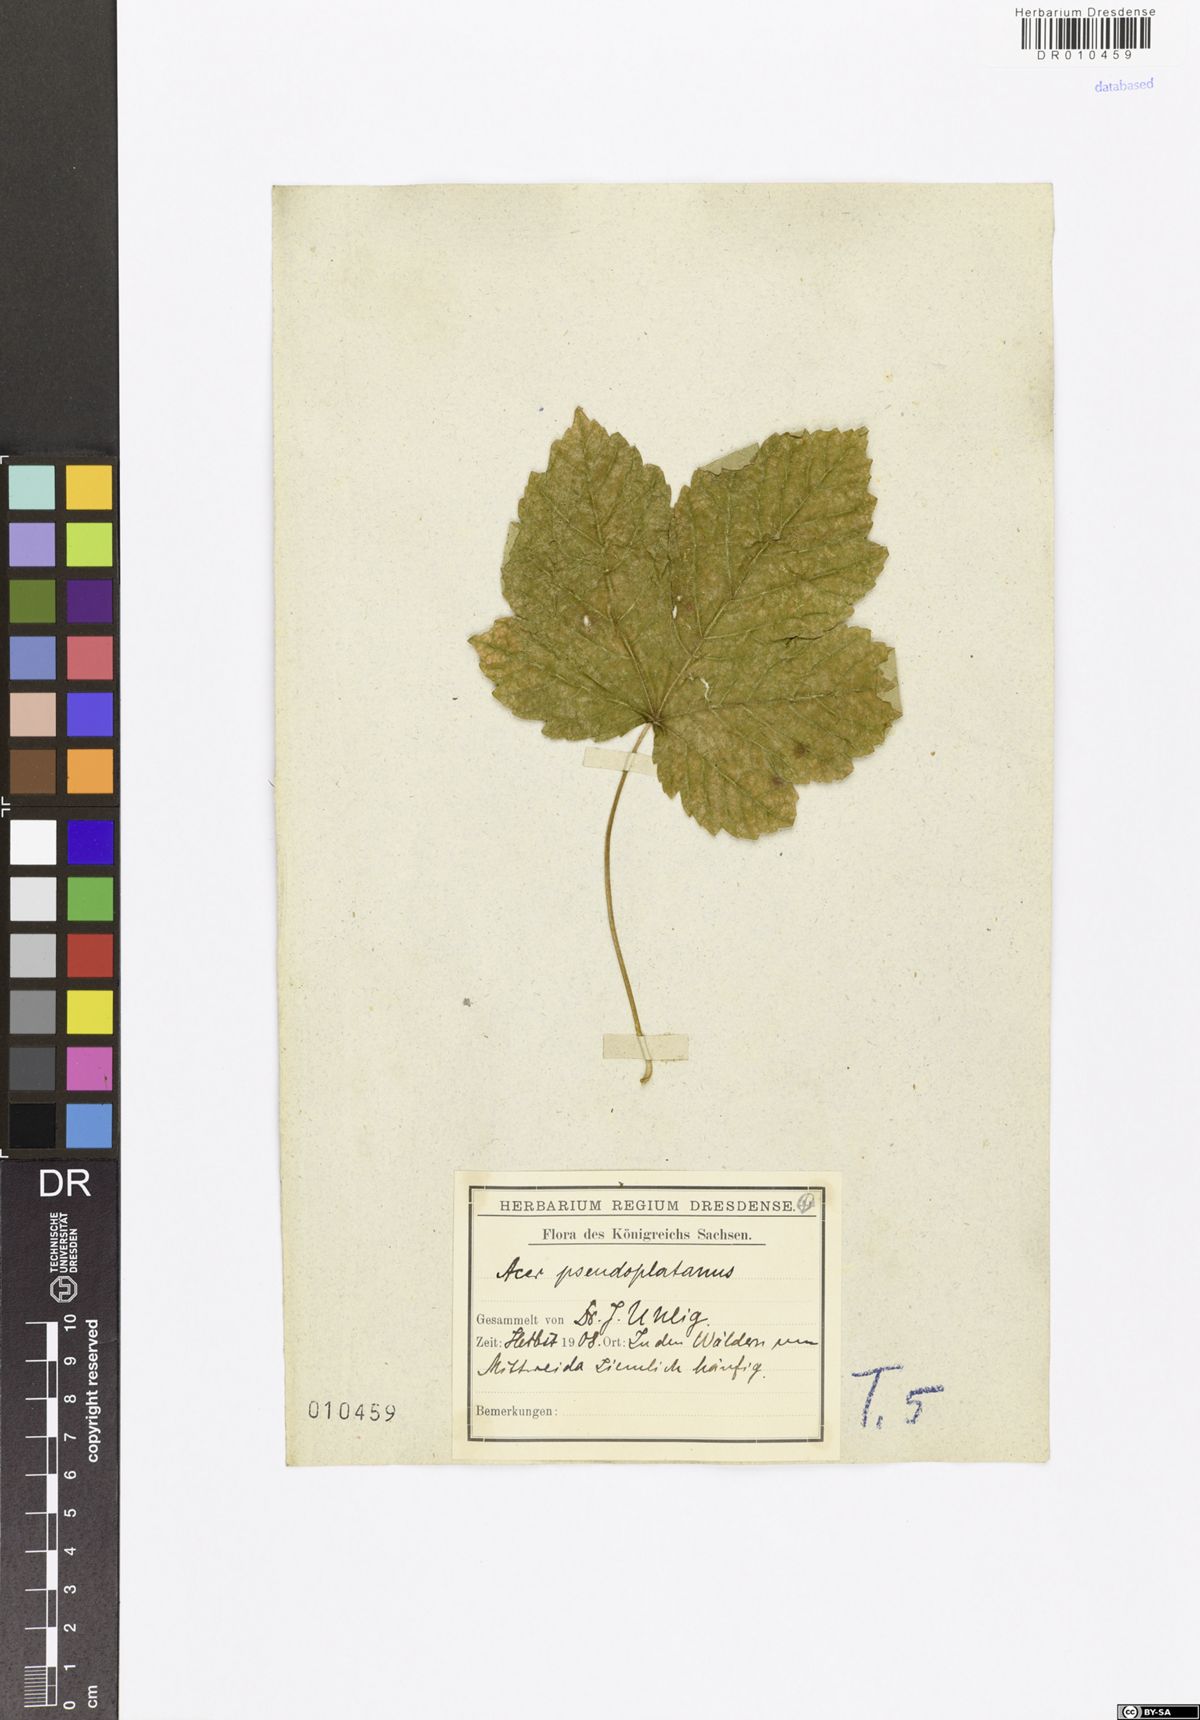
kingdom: Plantae
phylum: Tracheophyta
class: Magnoliopsida
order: Sapindales
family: Sapindaceae
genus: Acer
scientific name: Acer pseudoplatanus
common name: Sycamore
